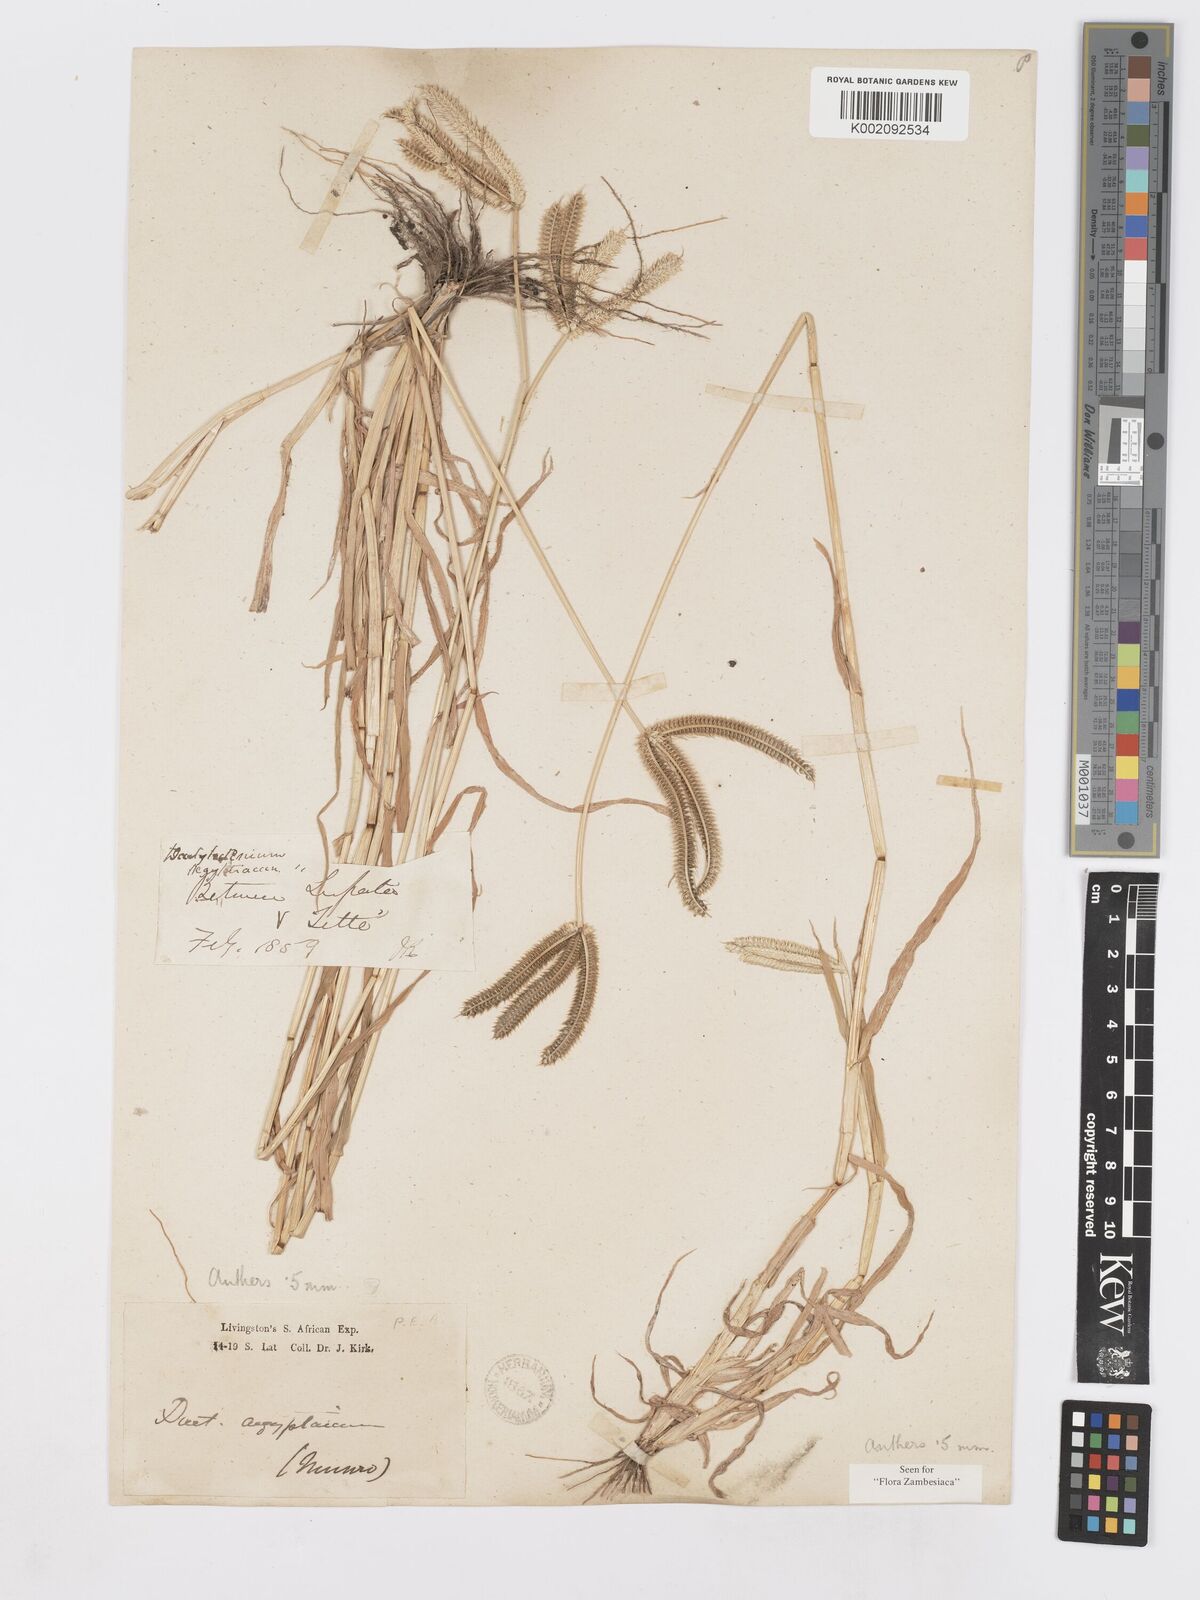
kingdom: Plantae
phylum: Tracheophyta
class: Liliopsida
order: Poales
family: Poaceae
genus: Dactyloctenium
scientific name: Dactyloctenium aegyptium
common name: Egyptian grass
